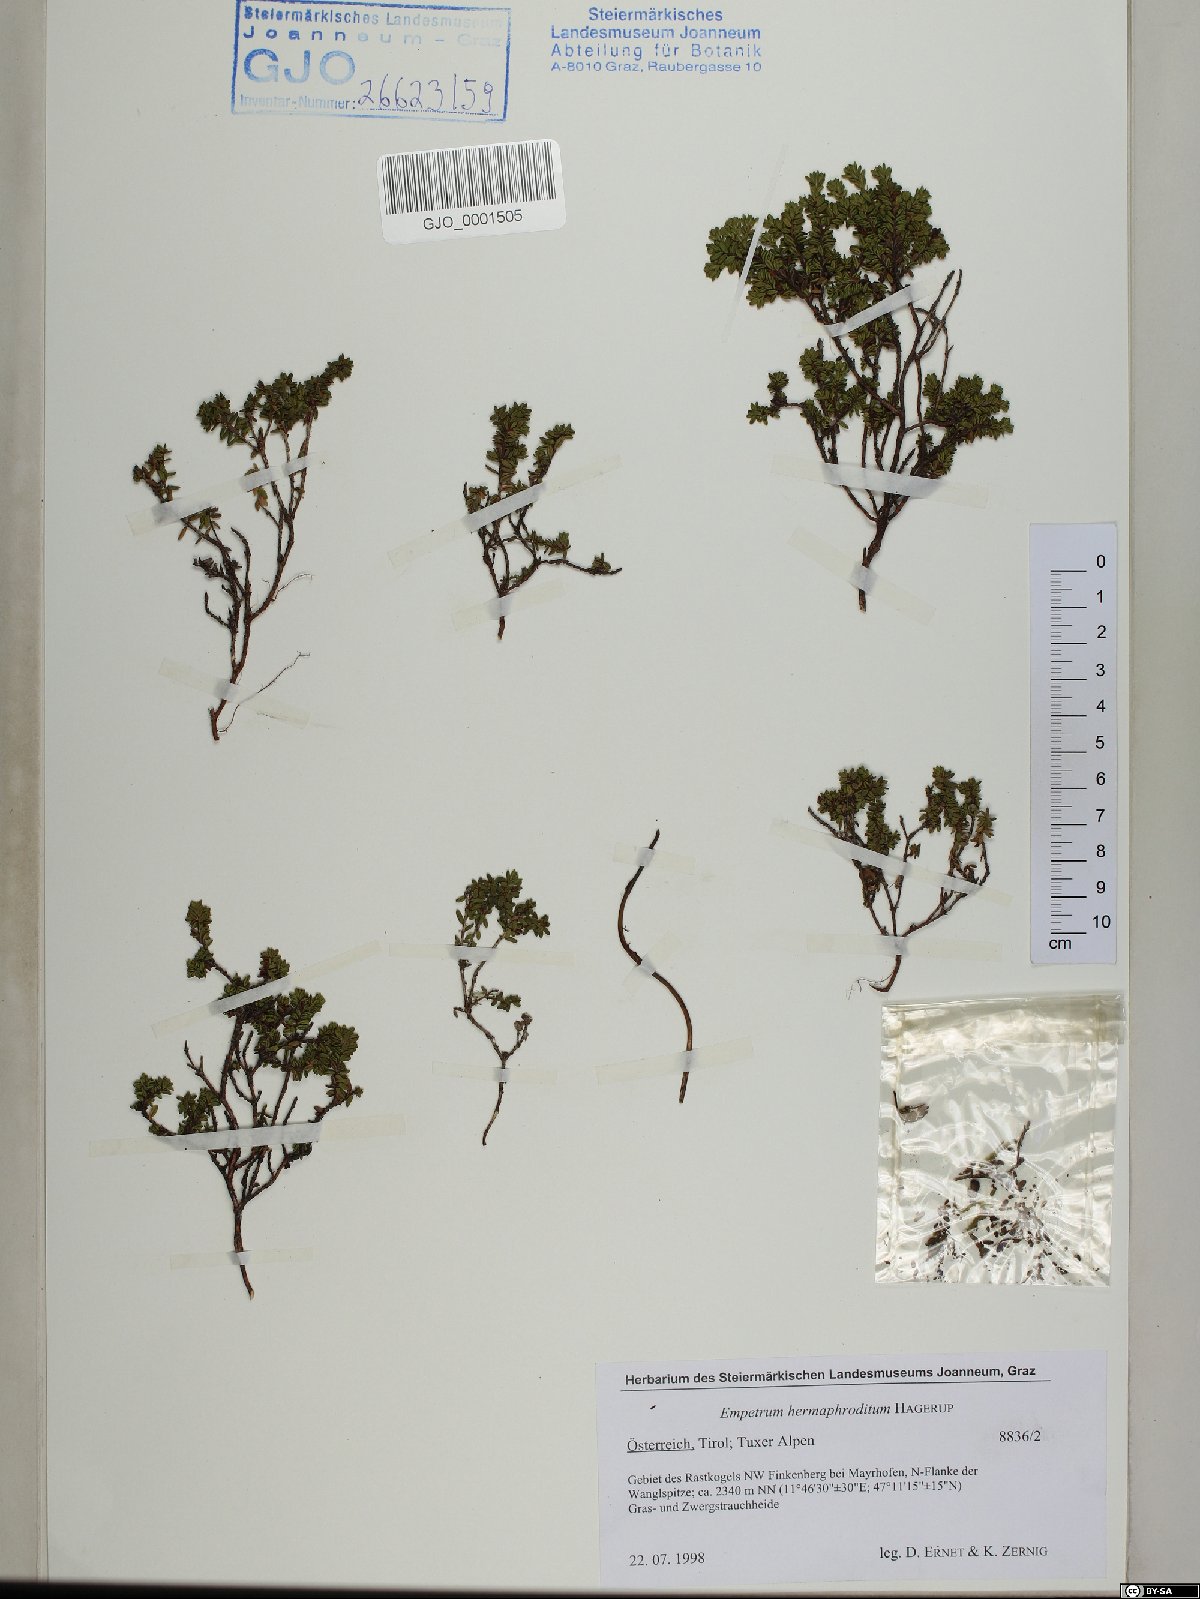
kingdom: Plantae
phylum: Tracheophyta
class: Magnoliopsida
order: Ericales
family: Ericaceae
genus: Empetrum
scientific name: Empetrum hermaphroditum
